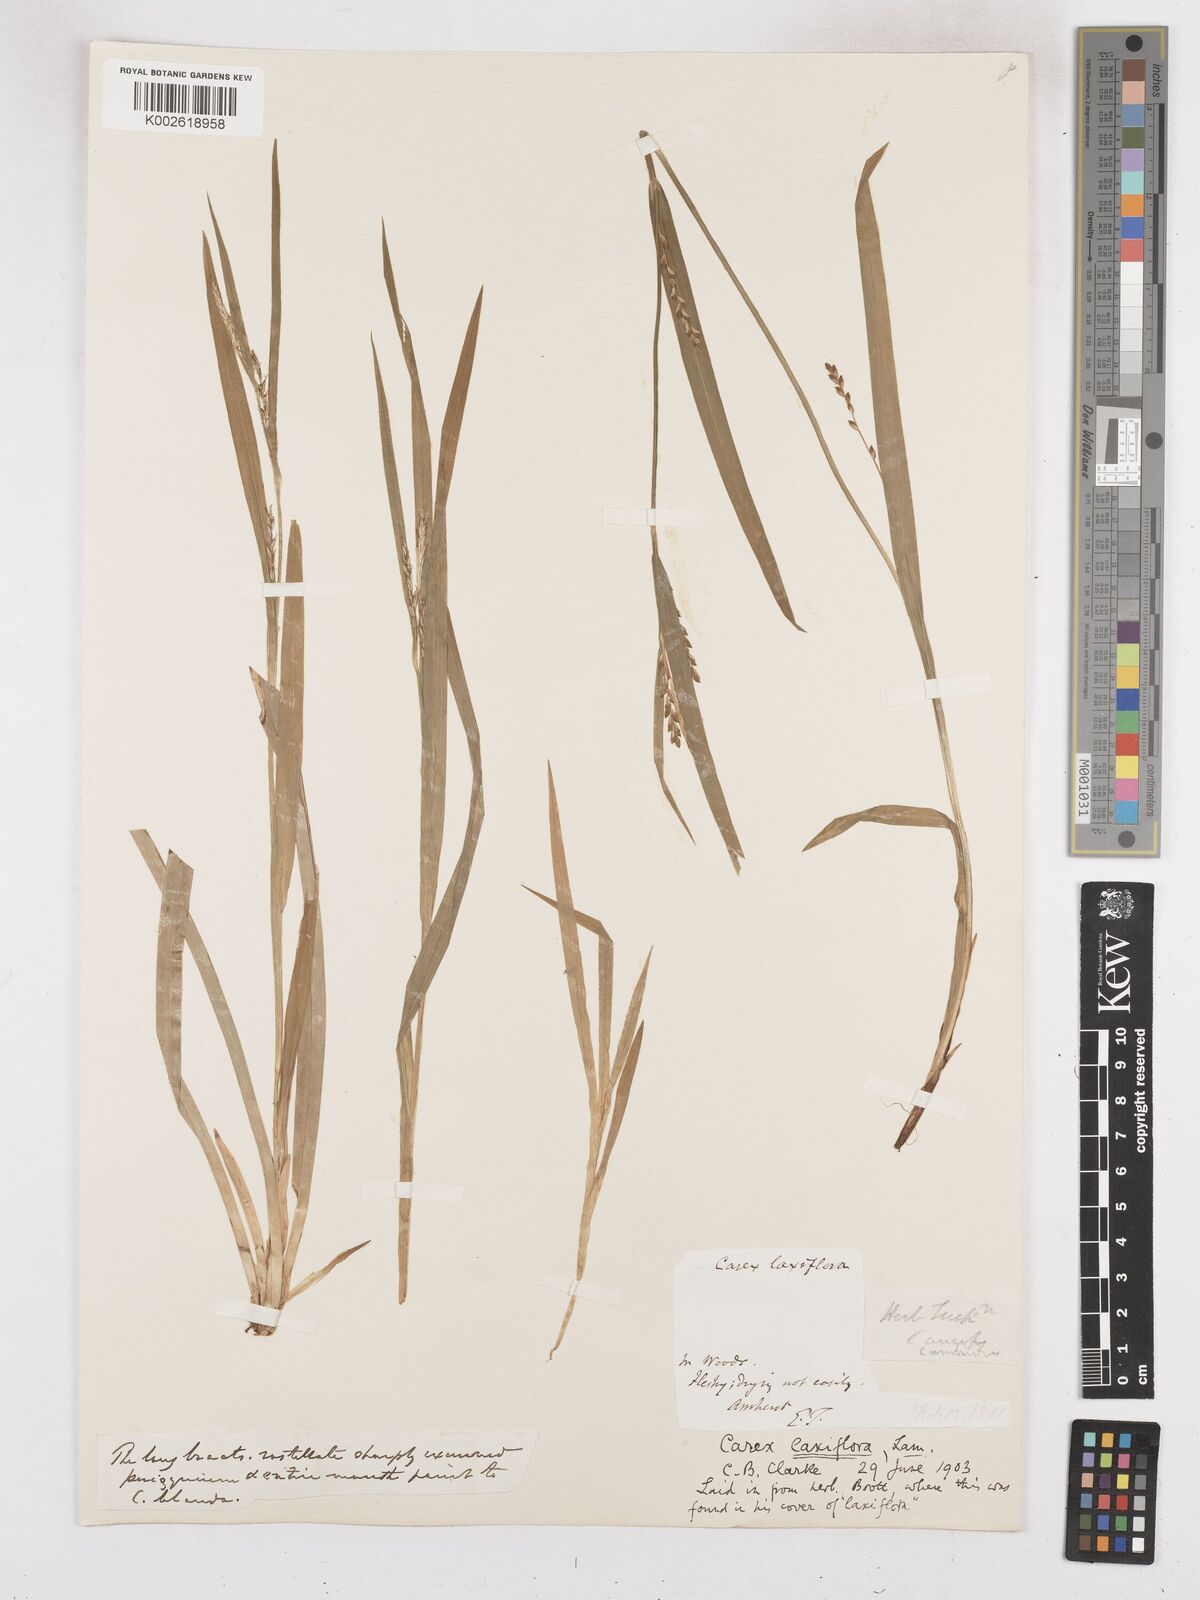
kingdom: Plantae
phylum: Tracheophyta
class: Liliopsida
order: Poales
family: Cyperaceae
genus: Carex
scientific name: Carex laxiflora
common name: Beech wood sedge
